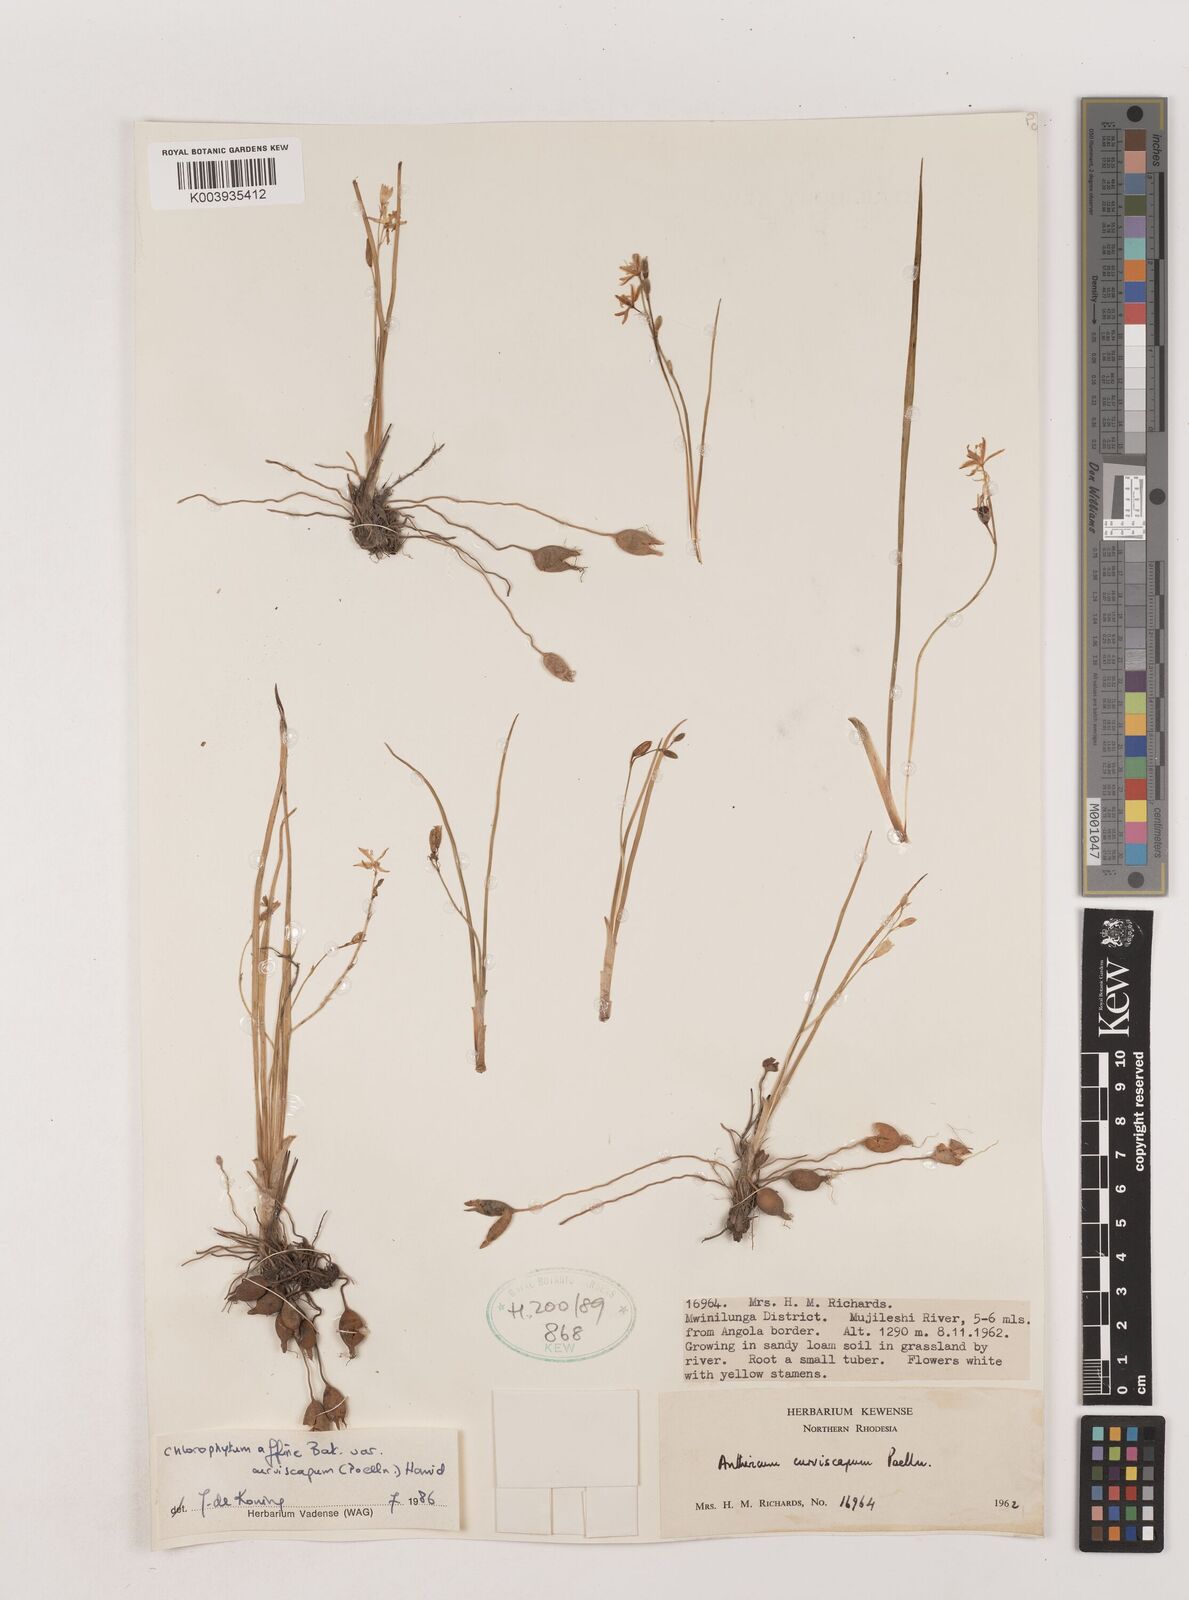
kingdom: Plantae
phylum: Tracheophyta
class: Liliopsida
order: Asparagales
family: Asparagaceae
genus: Chlorophytum
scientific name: Chlorophytum tordense
